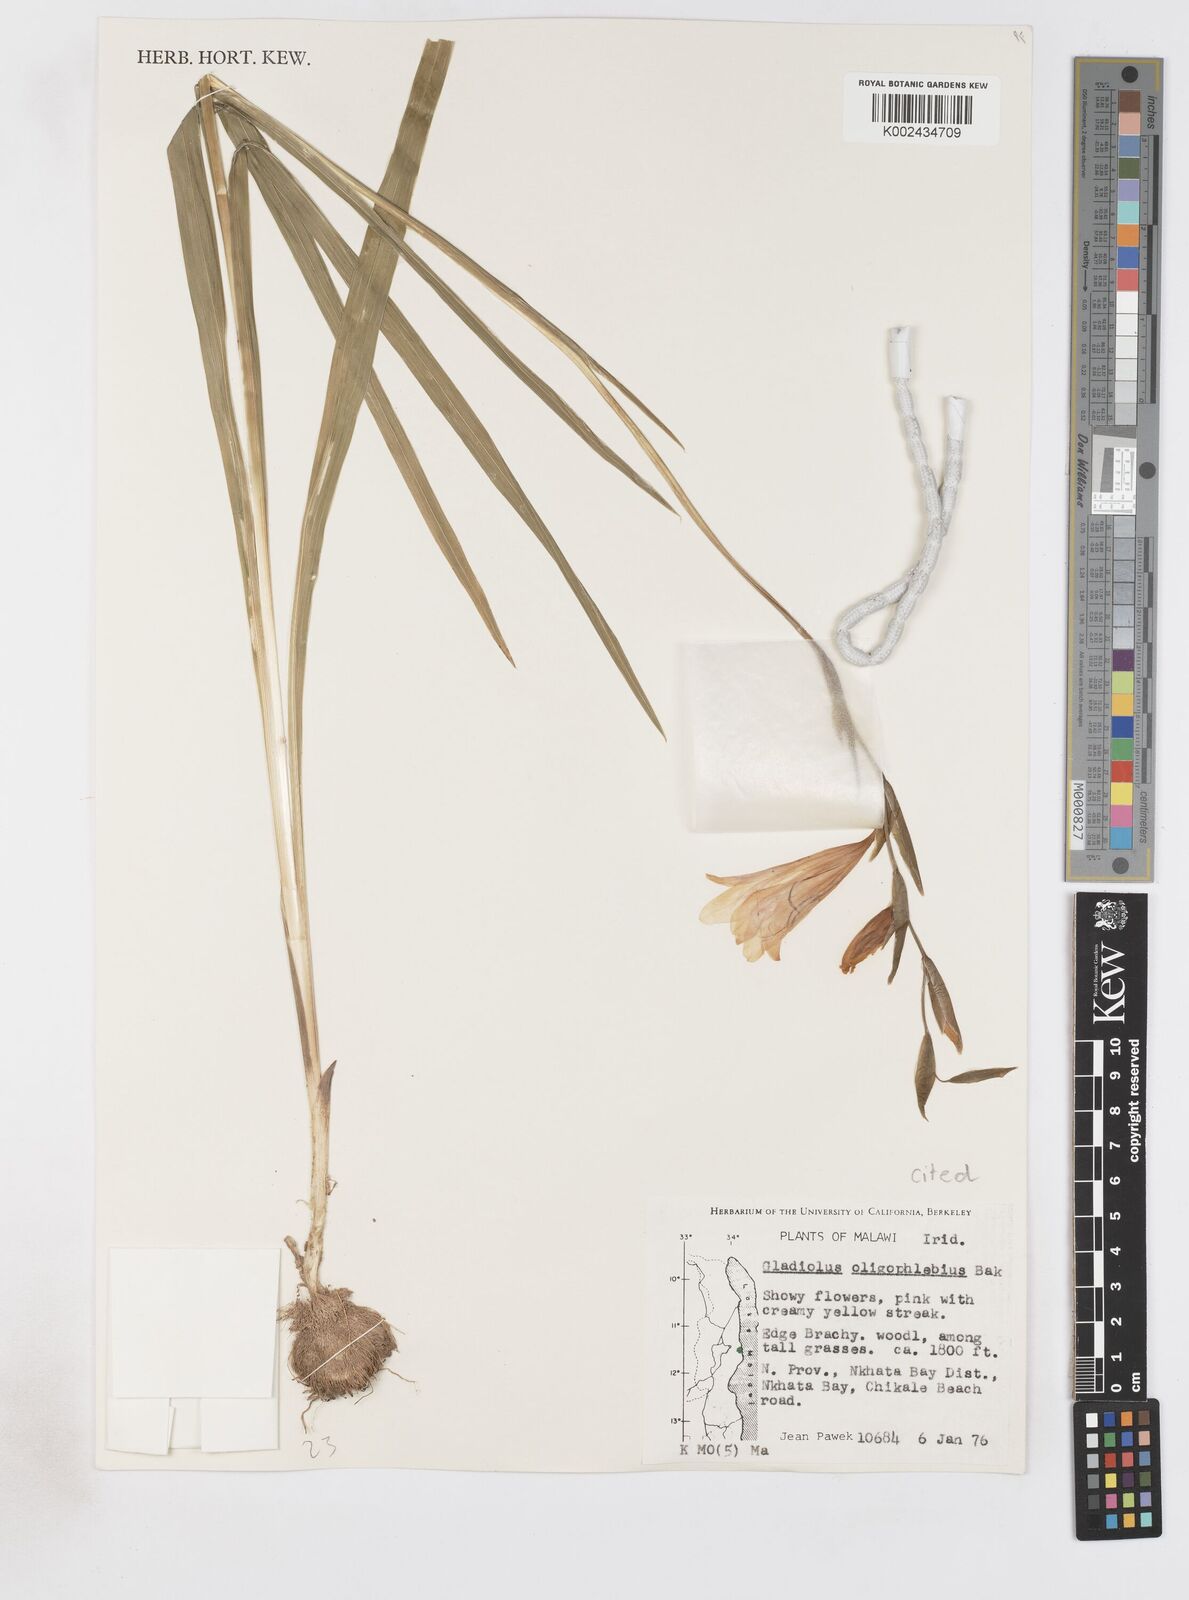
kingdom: Plantae
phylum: Tracheophyta
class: Liliopsida
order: Asparagales
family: Iridaceae
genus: Gladiolus
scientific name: Gladiolus oligophlebius
